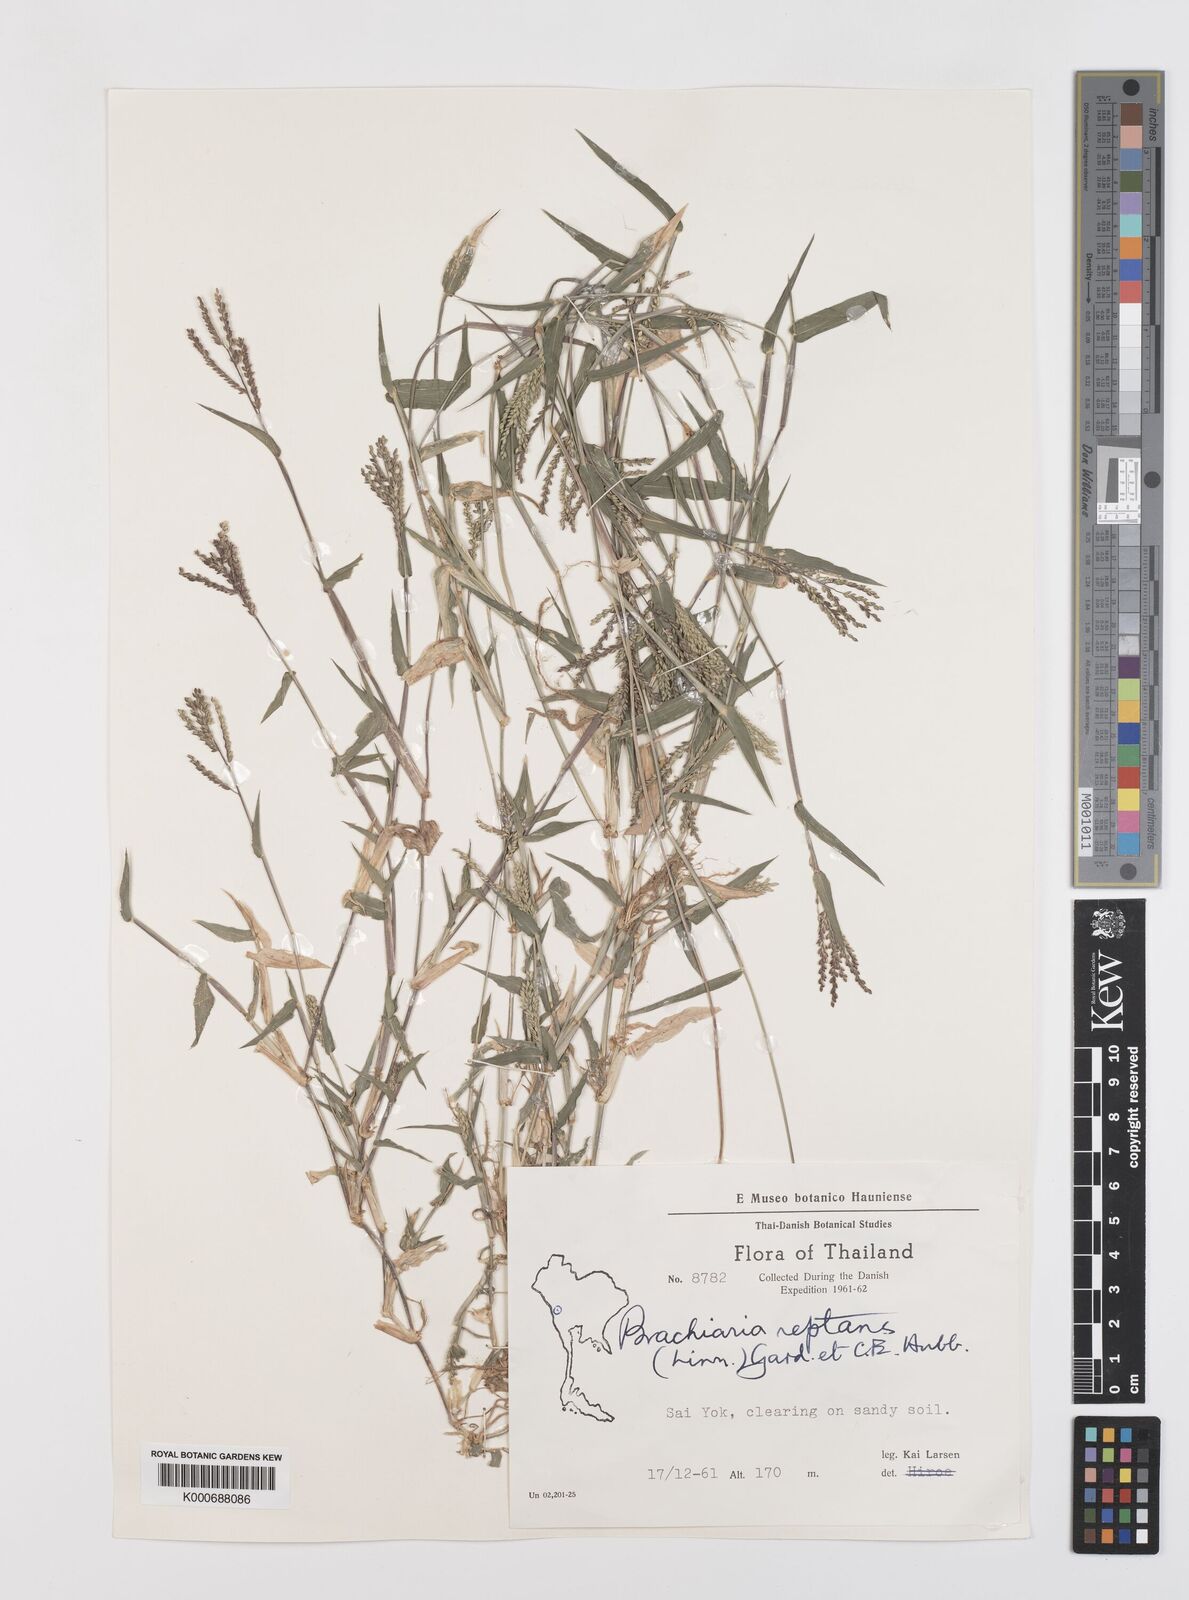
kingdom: Plantae
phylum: Tracheophyta
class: Liliopsida
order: Poales
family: Poaceae
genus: Urochloa
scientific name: Urochloa reptans
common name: Sprawling signalgrass
